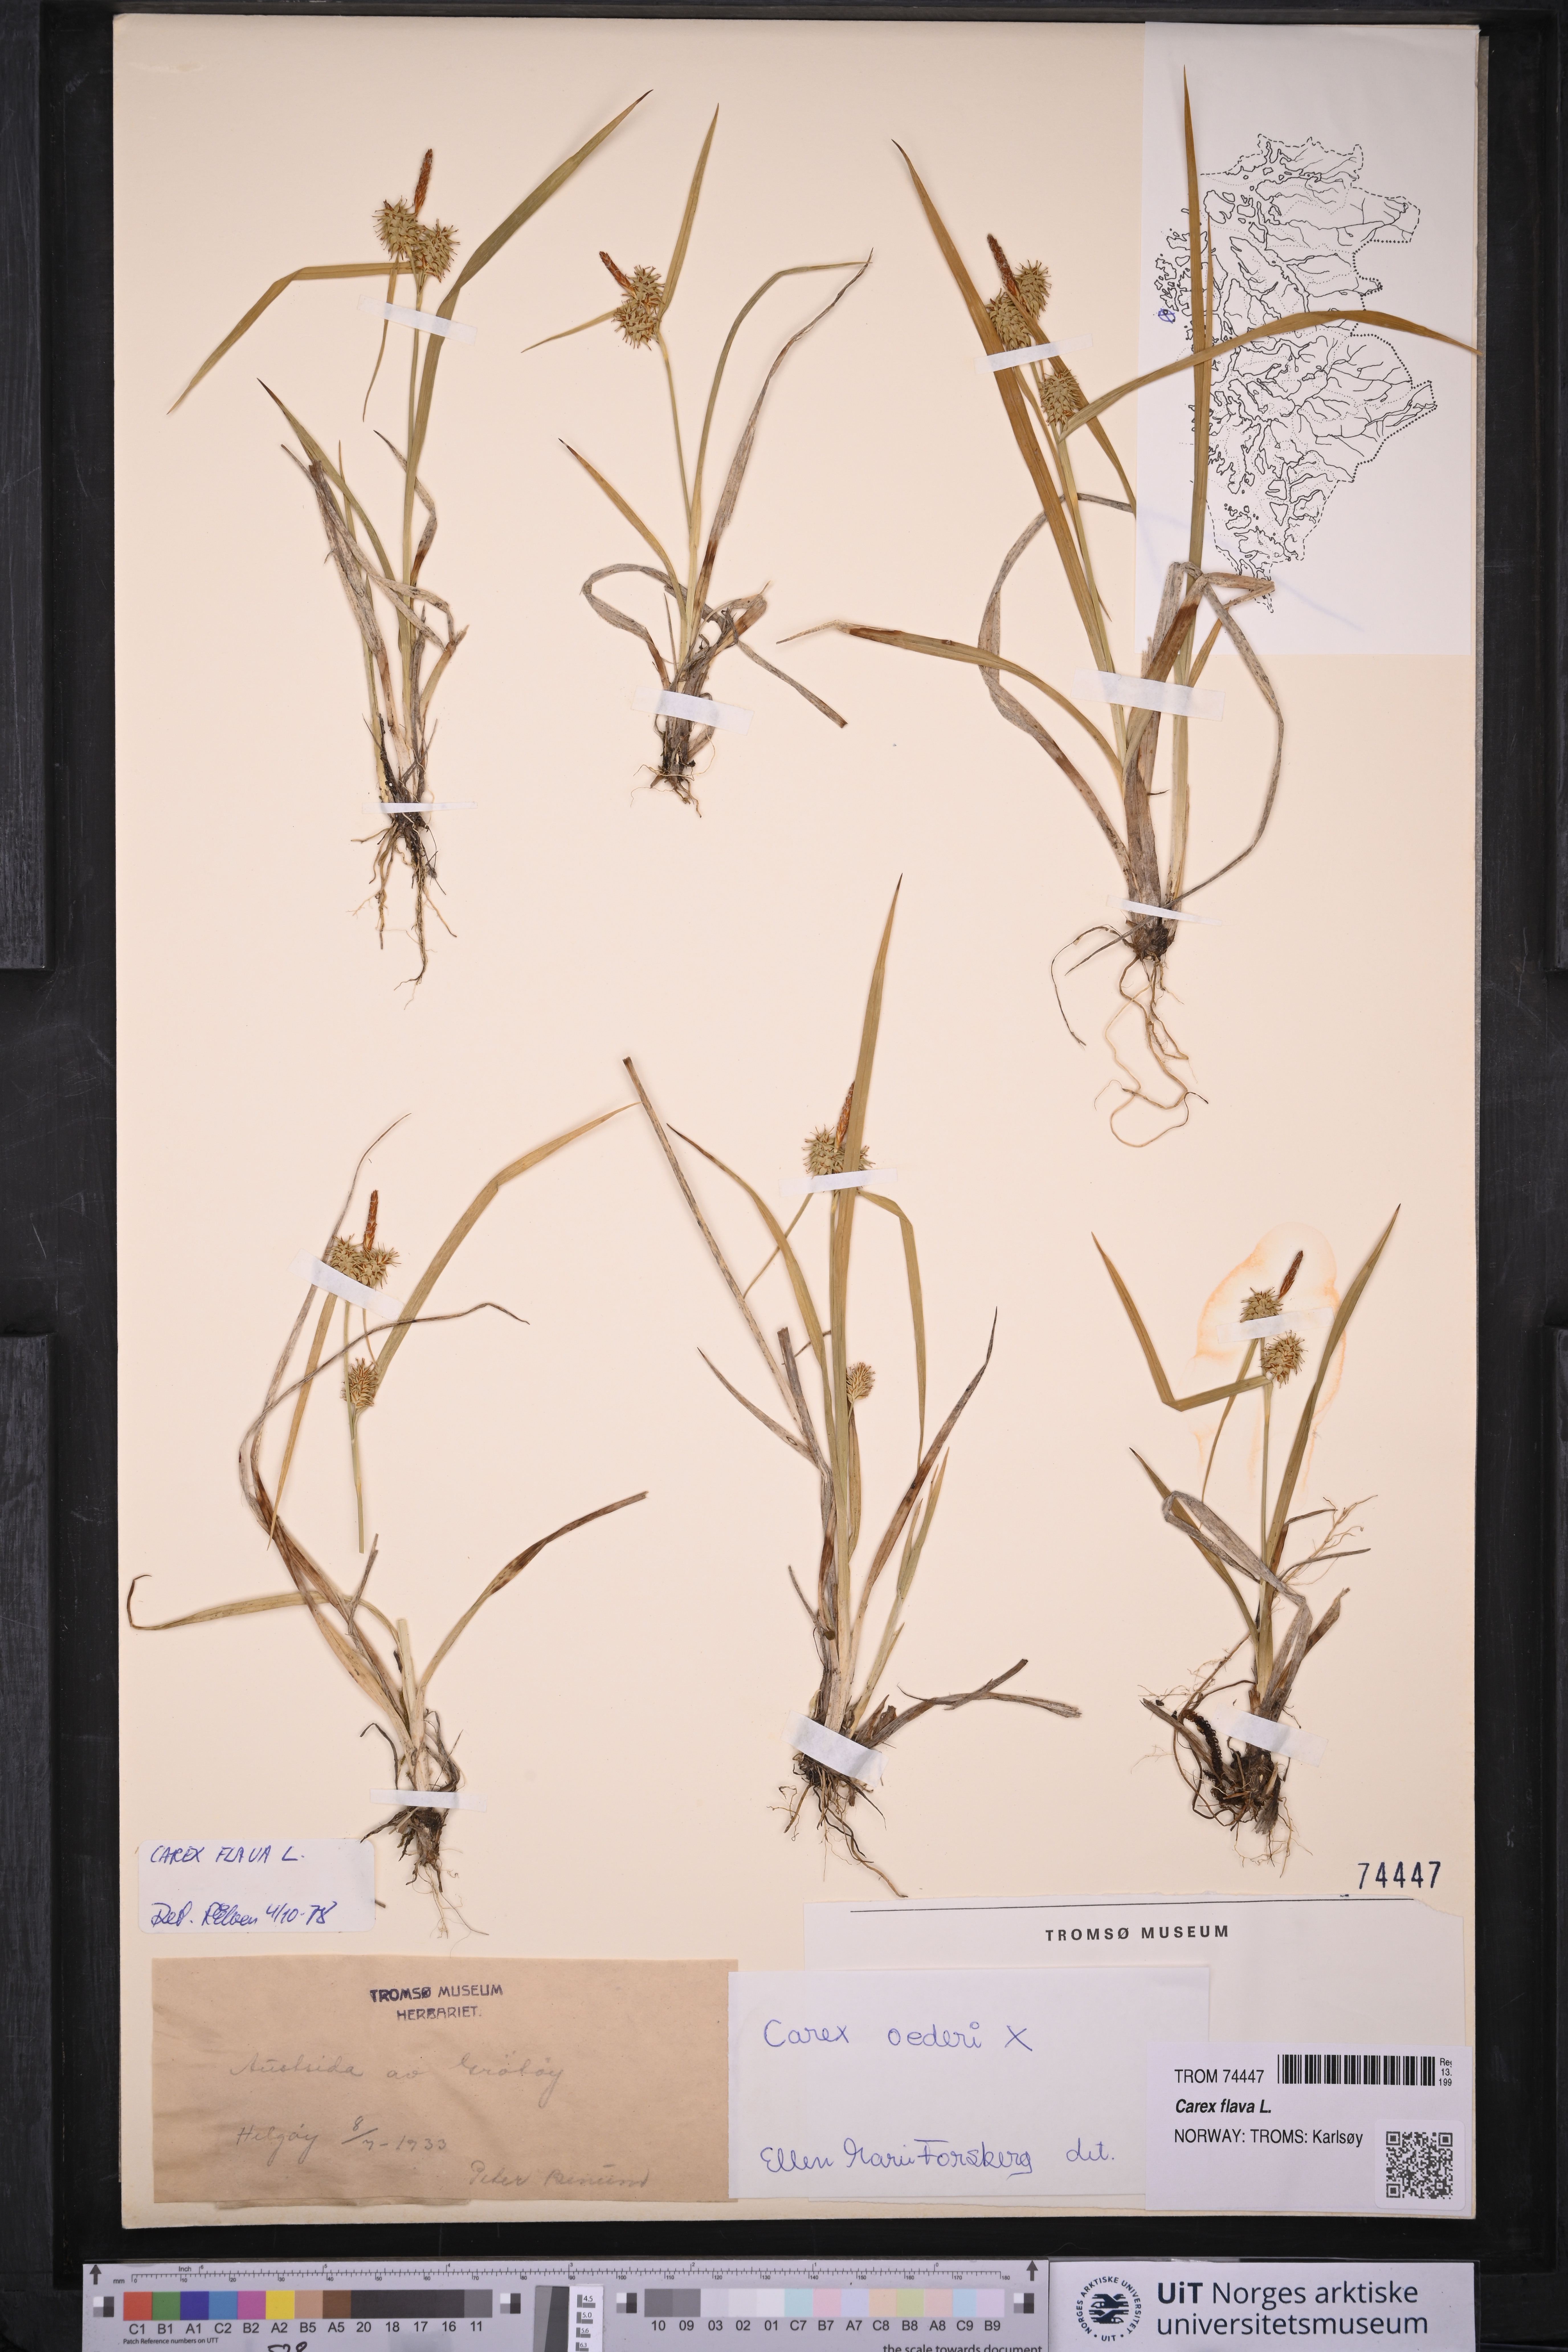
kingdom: Plantae
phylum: Tracheophyta
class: Liliopsida
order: Poales
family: Cyperaceae
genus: Carex
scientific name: Carex flava
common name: Large yellow-sedge
